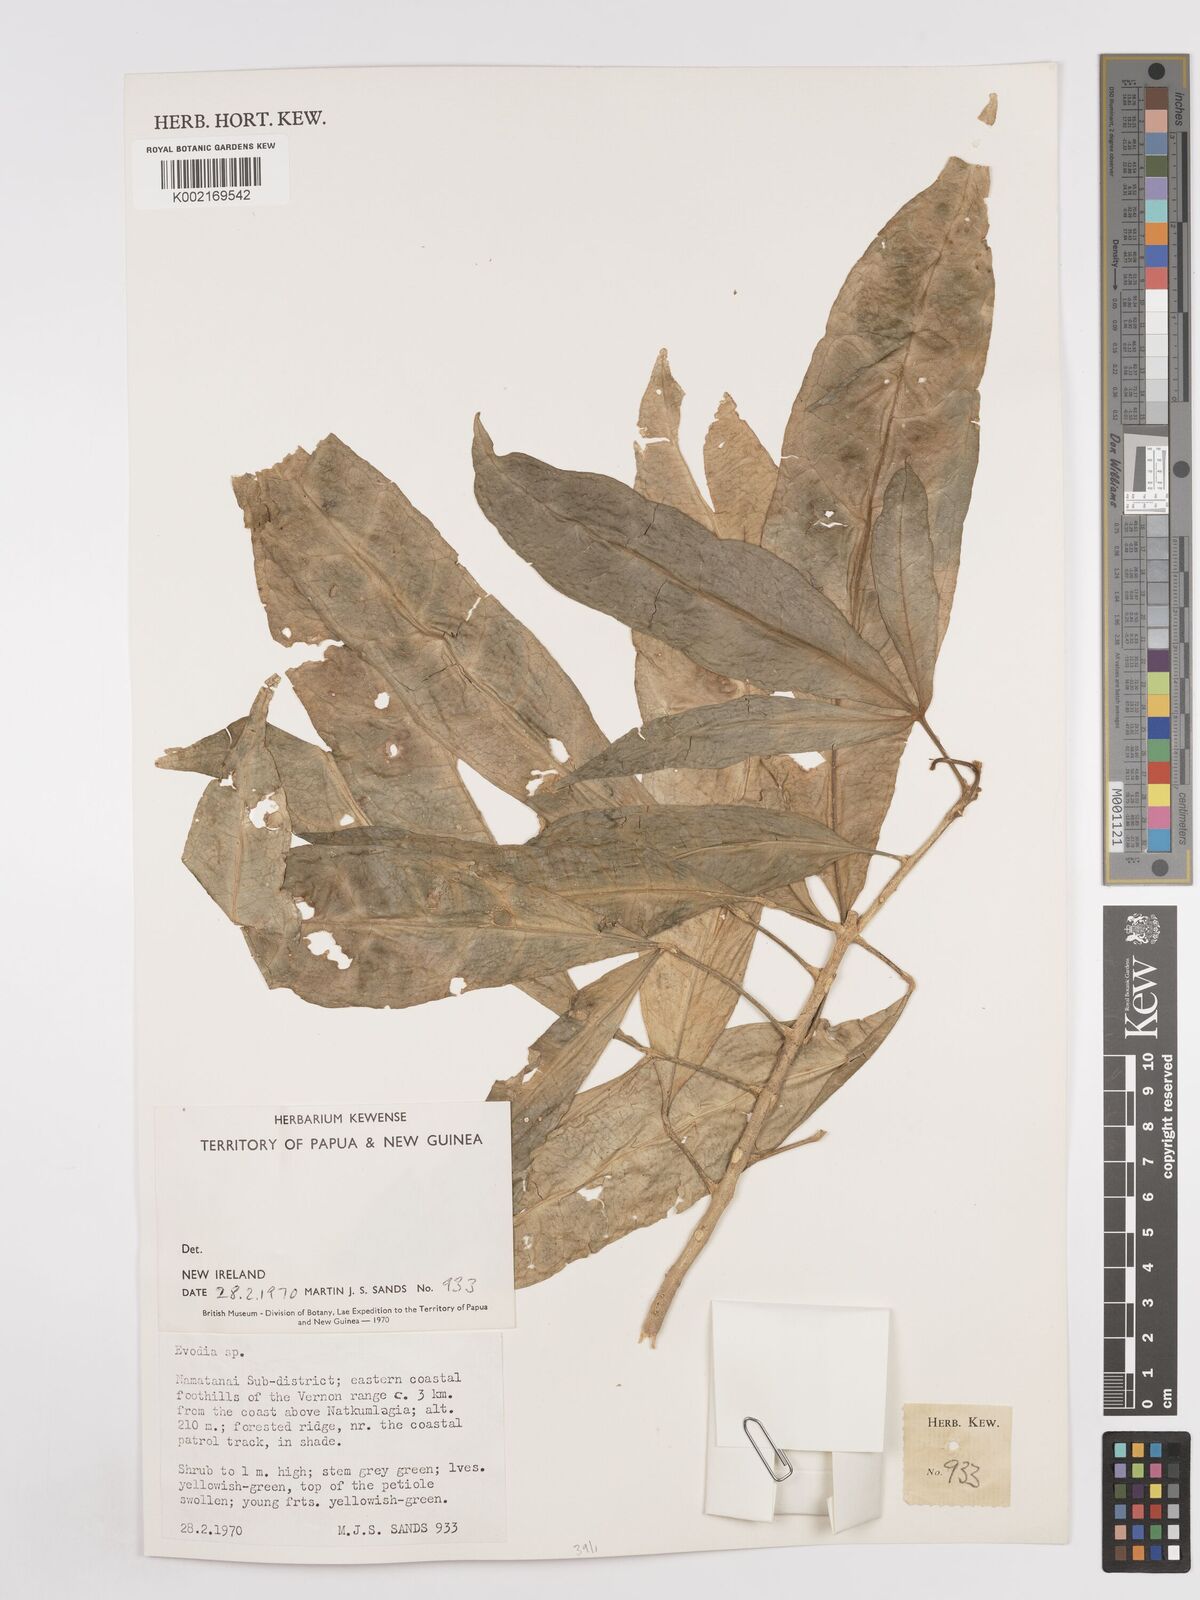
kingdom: Plantae
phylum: Tracheophyta
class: Magnoliopsida
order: Sapindales
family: Rutaceae
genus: Euodia
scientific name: Euodia
